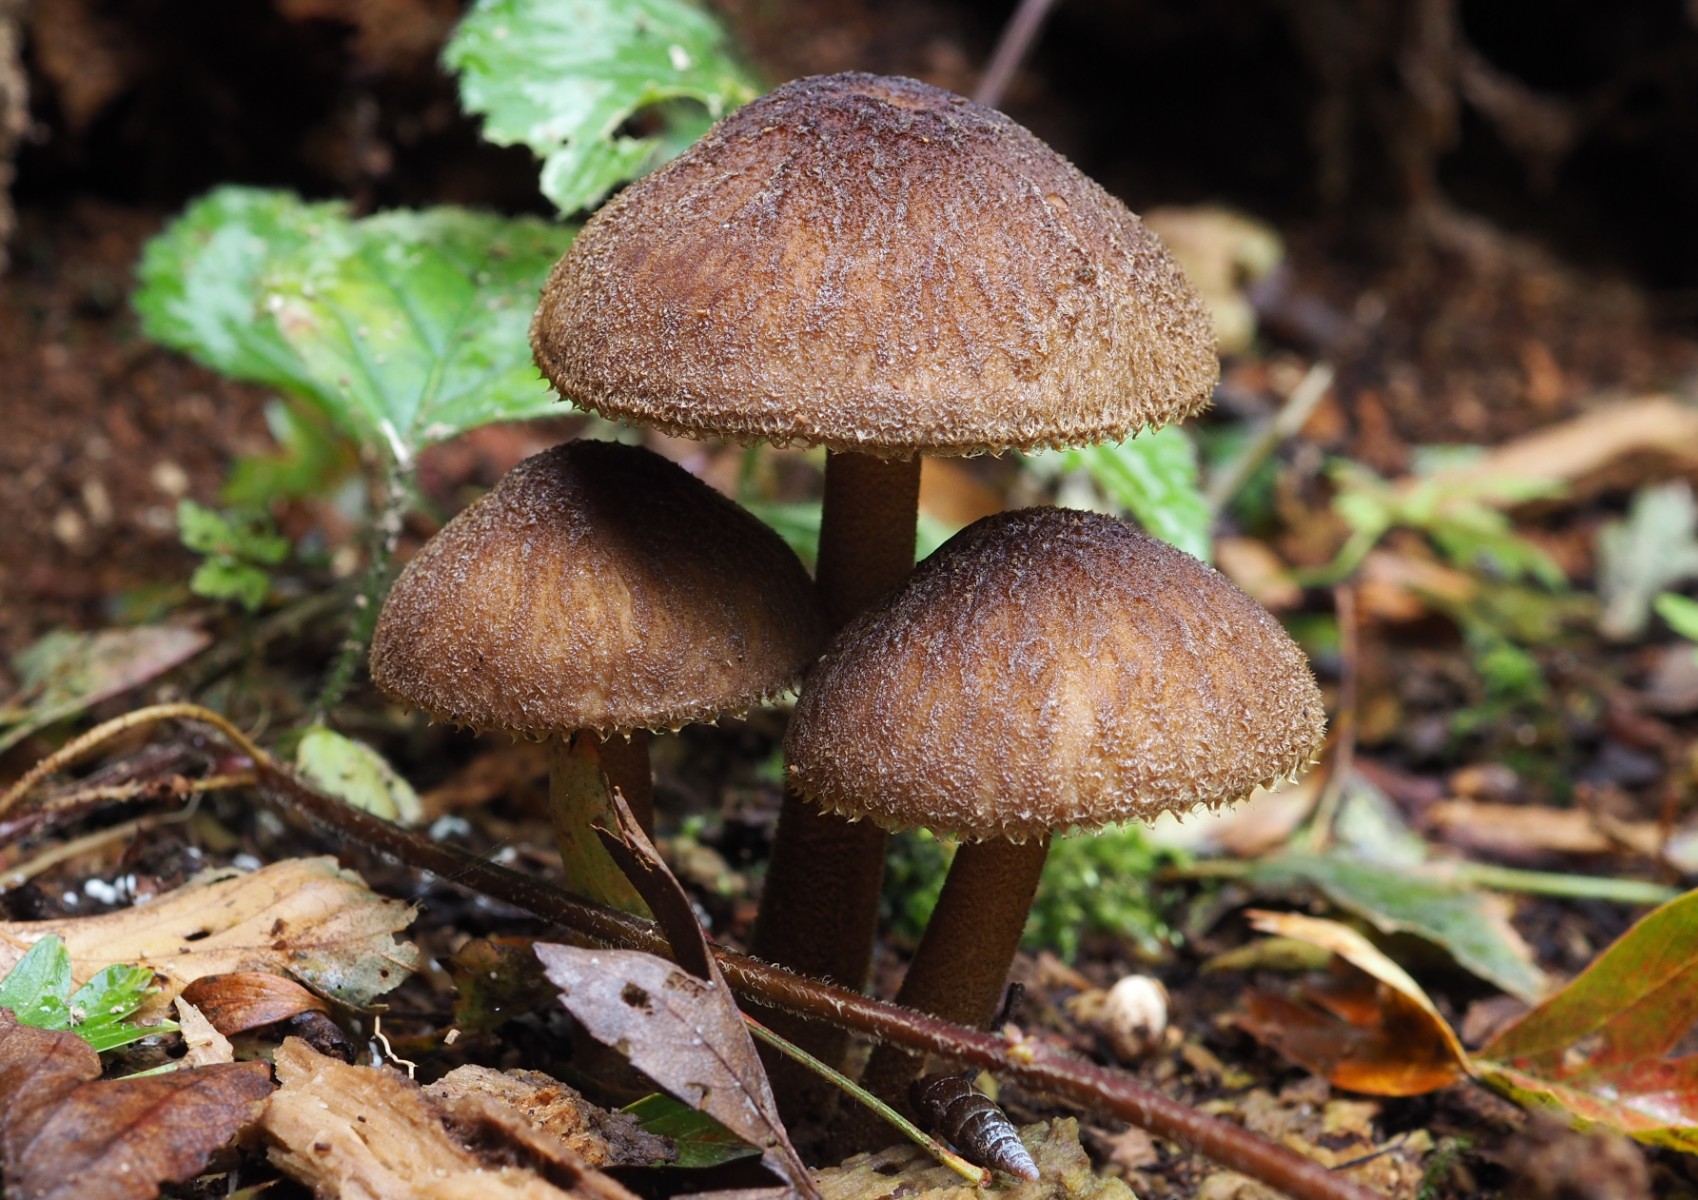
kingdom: Fungi
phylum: Basidiomycota
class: Agaricomycetes
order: Agaricales
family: Pluteaceae
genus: Pluteus
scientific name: Pluteus umbrosus
